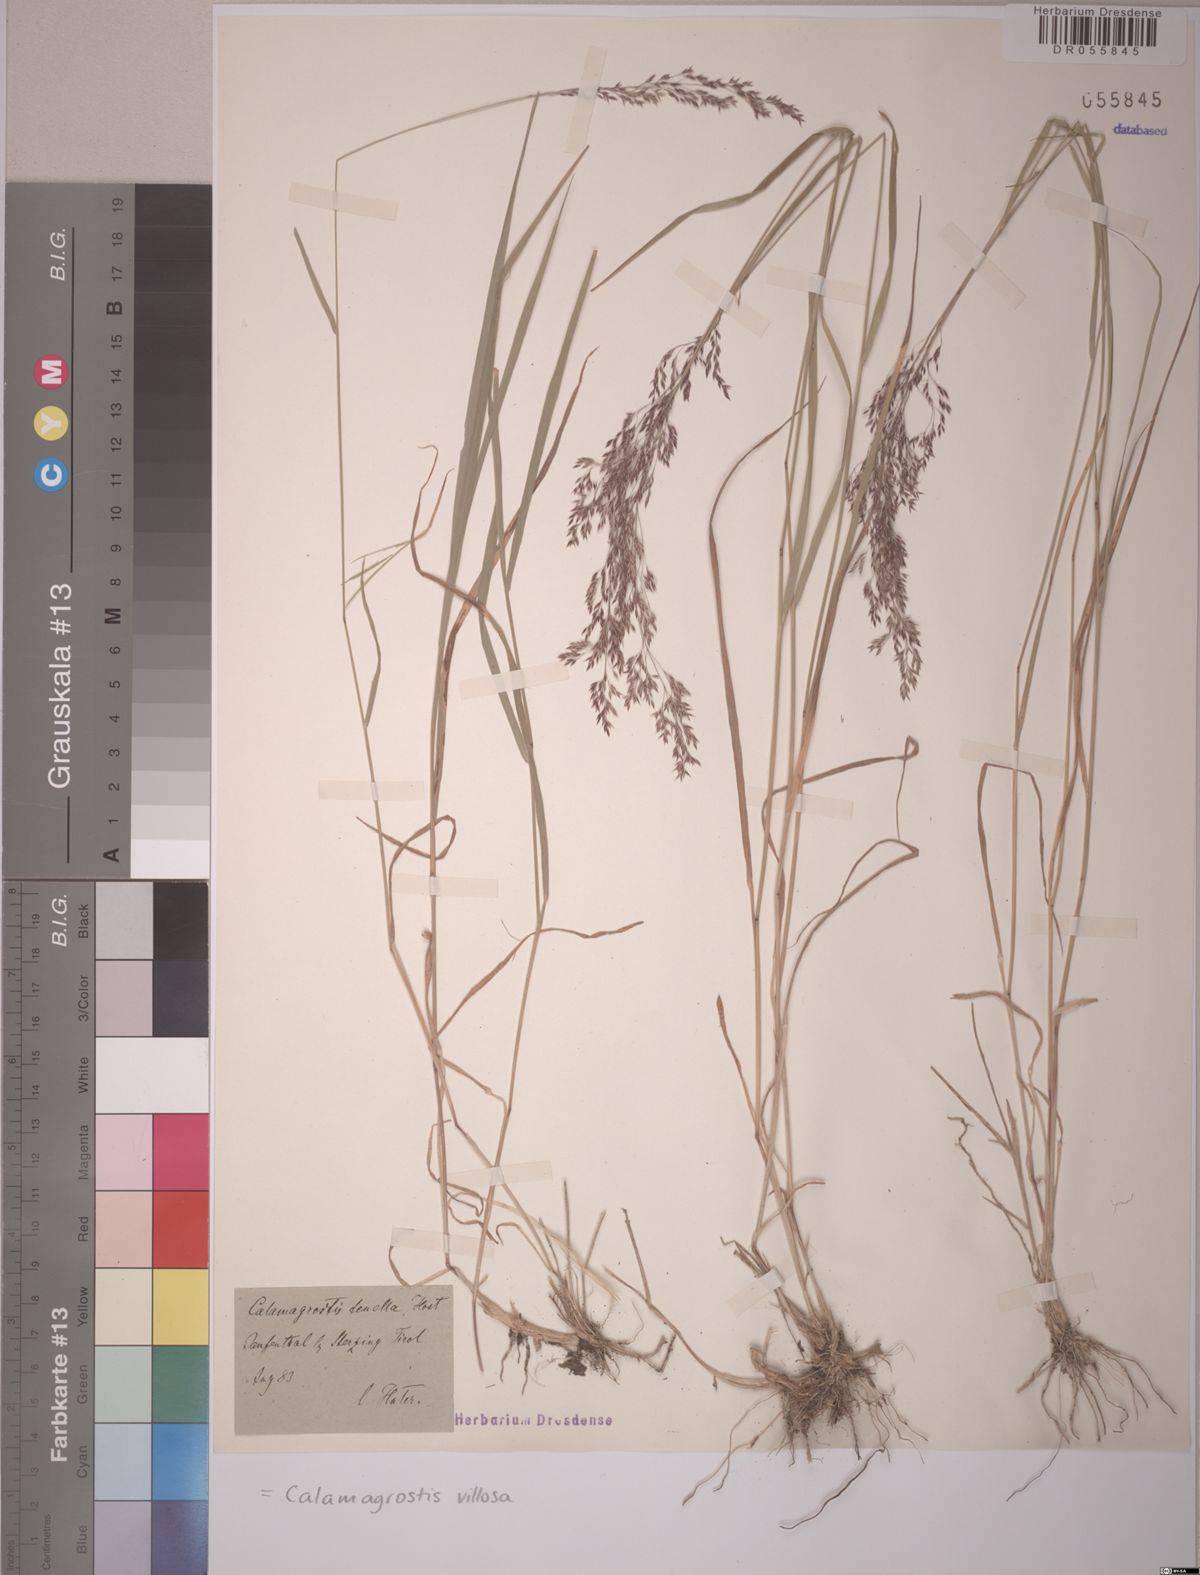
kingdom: Plantae
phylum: Tracheophyta
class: Liliopsida
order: Poales
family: Poaceae
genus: Calamagrostis
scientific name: Calamagrostis villosa
